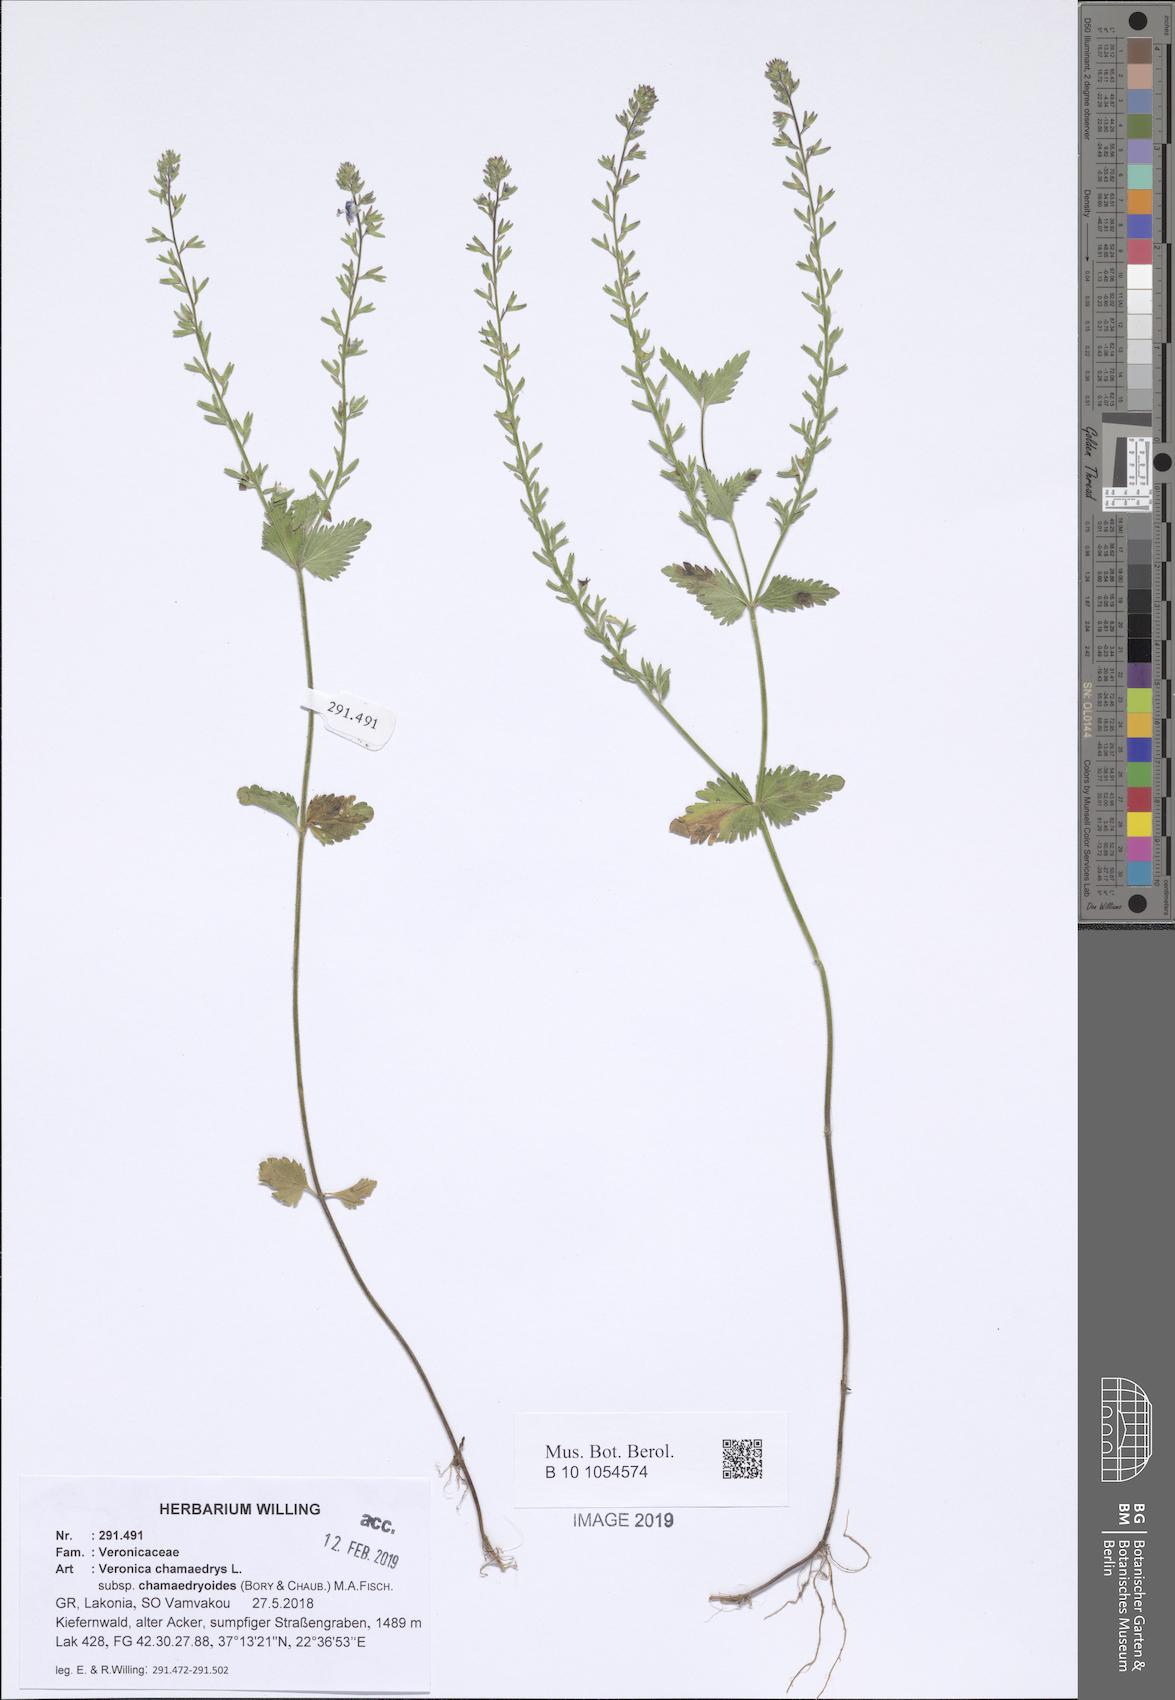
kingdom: Plantae
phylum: Tracheophyta
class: Magnoliopsida
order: Lamiales
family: Plantaginaceae
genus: Veronica
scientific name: Veronica chamaedrys
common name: Germander speedwell
